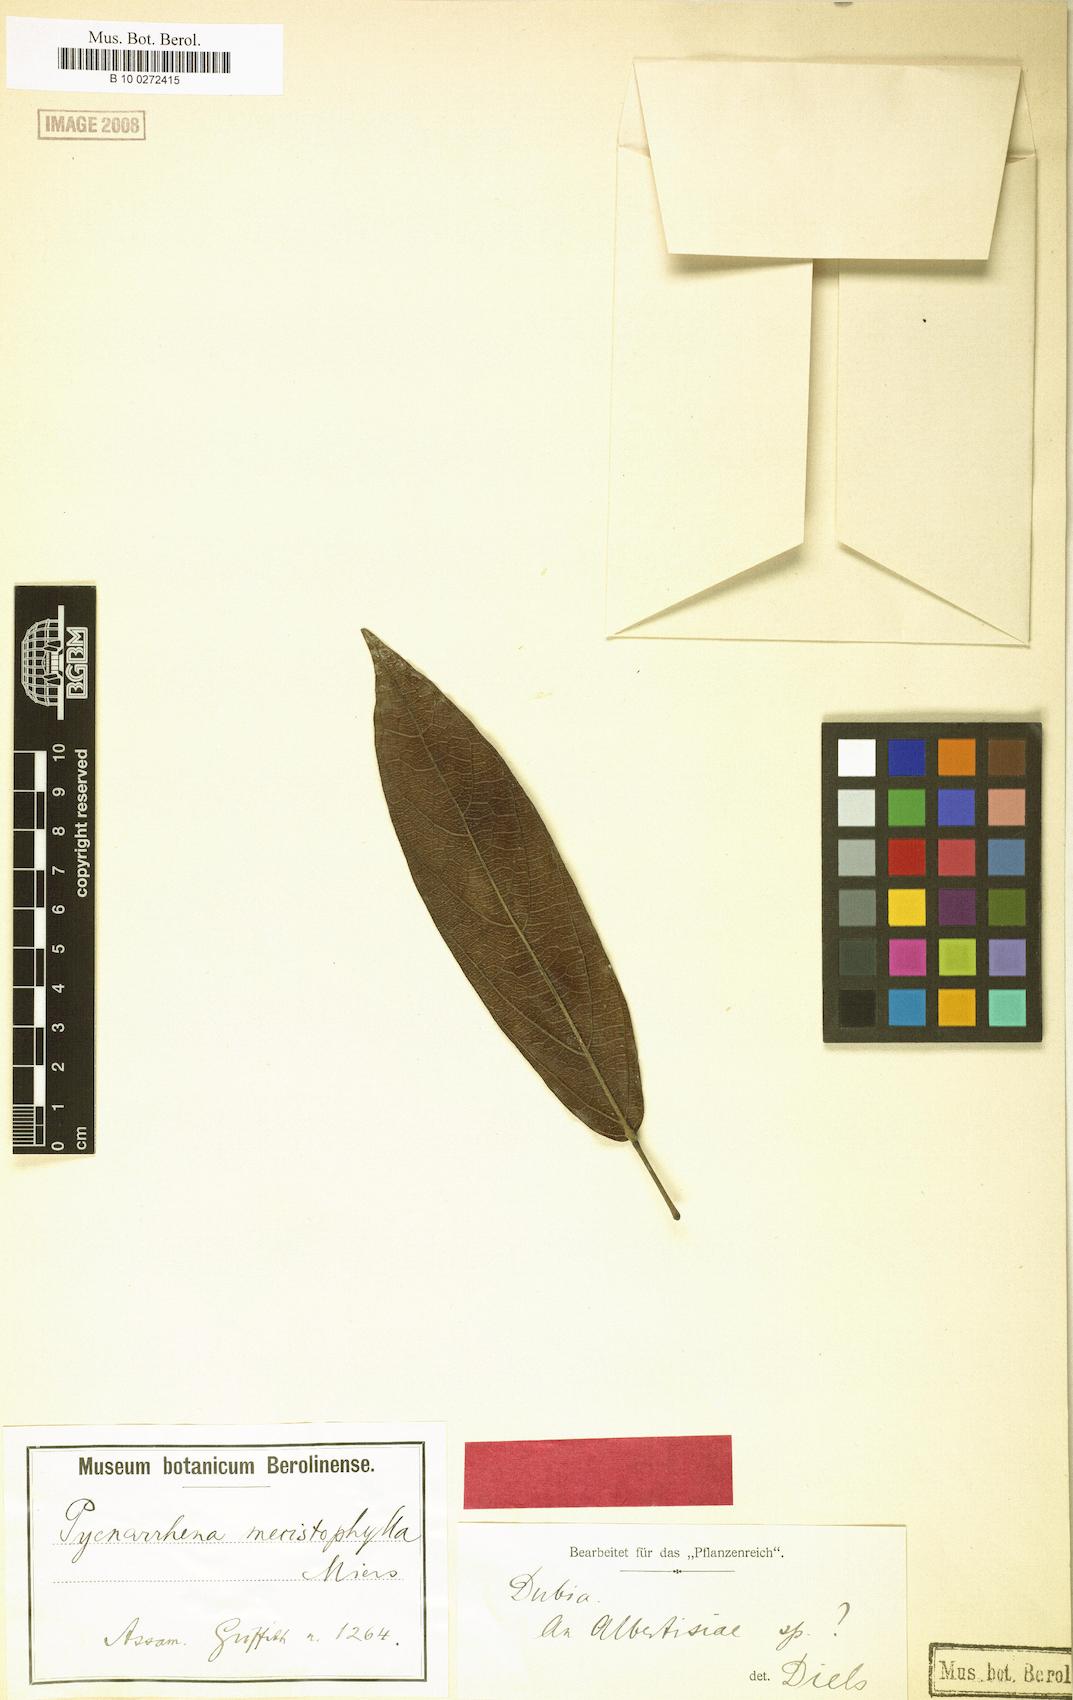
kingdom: Plantae
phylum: Tracheophyta
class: Magnoliopsida
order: Ranunculales
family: Menispermaceae
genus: Albertisia
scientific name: Albertisia mecistophylla
